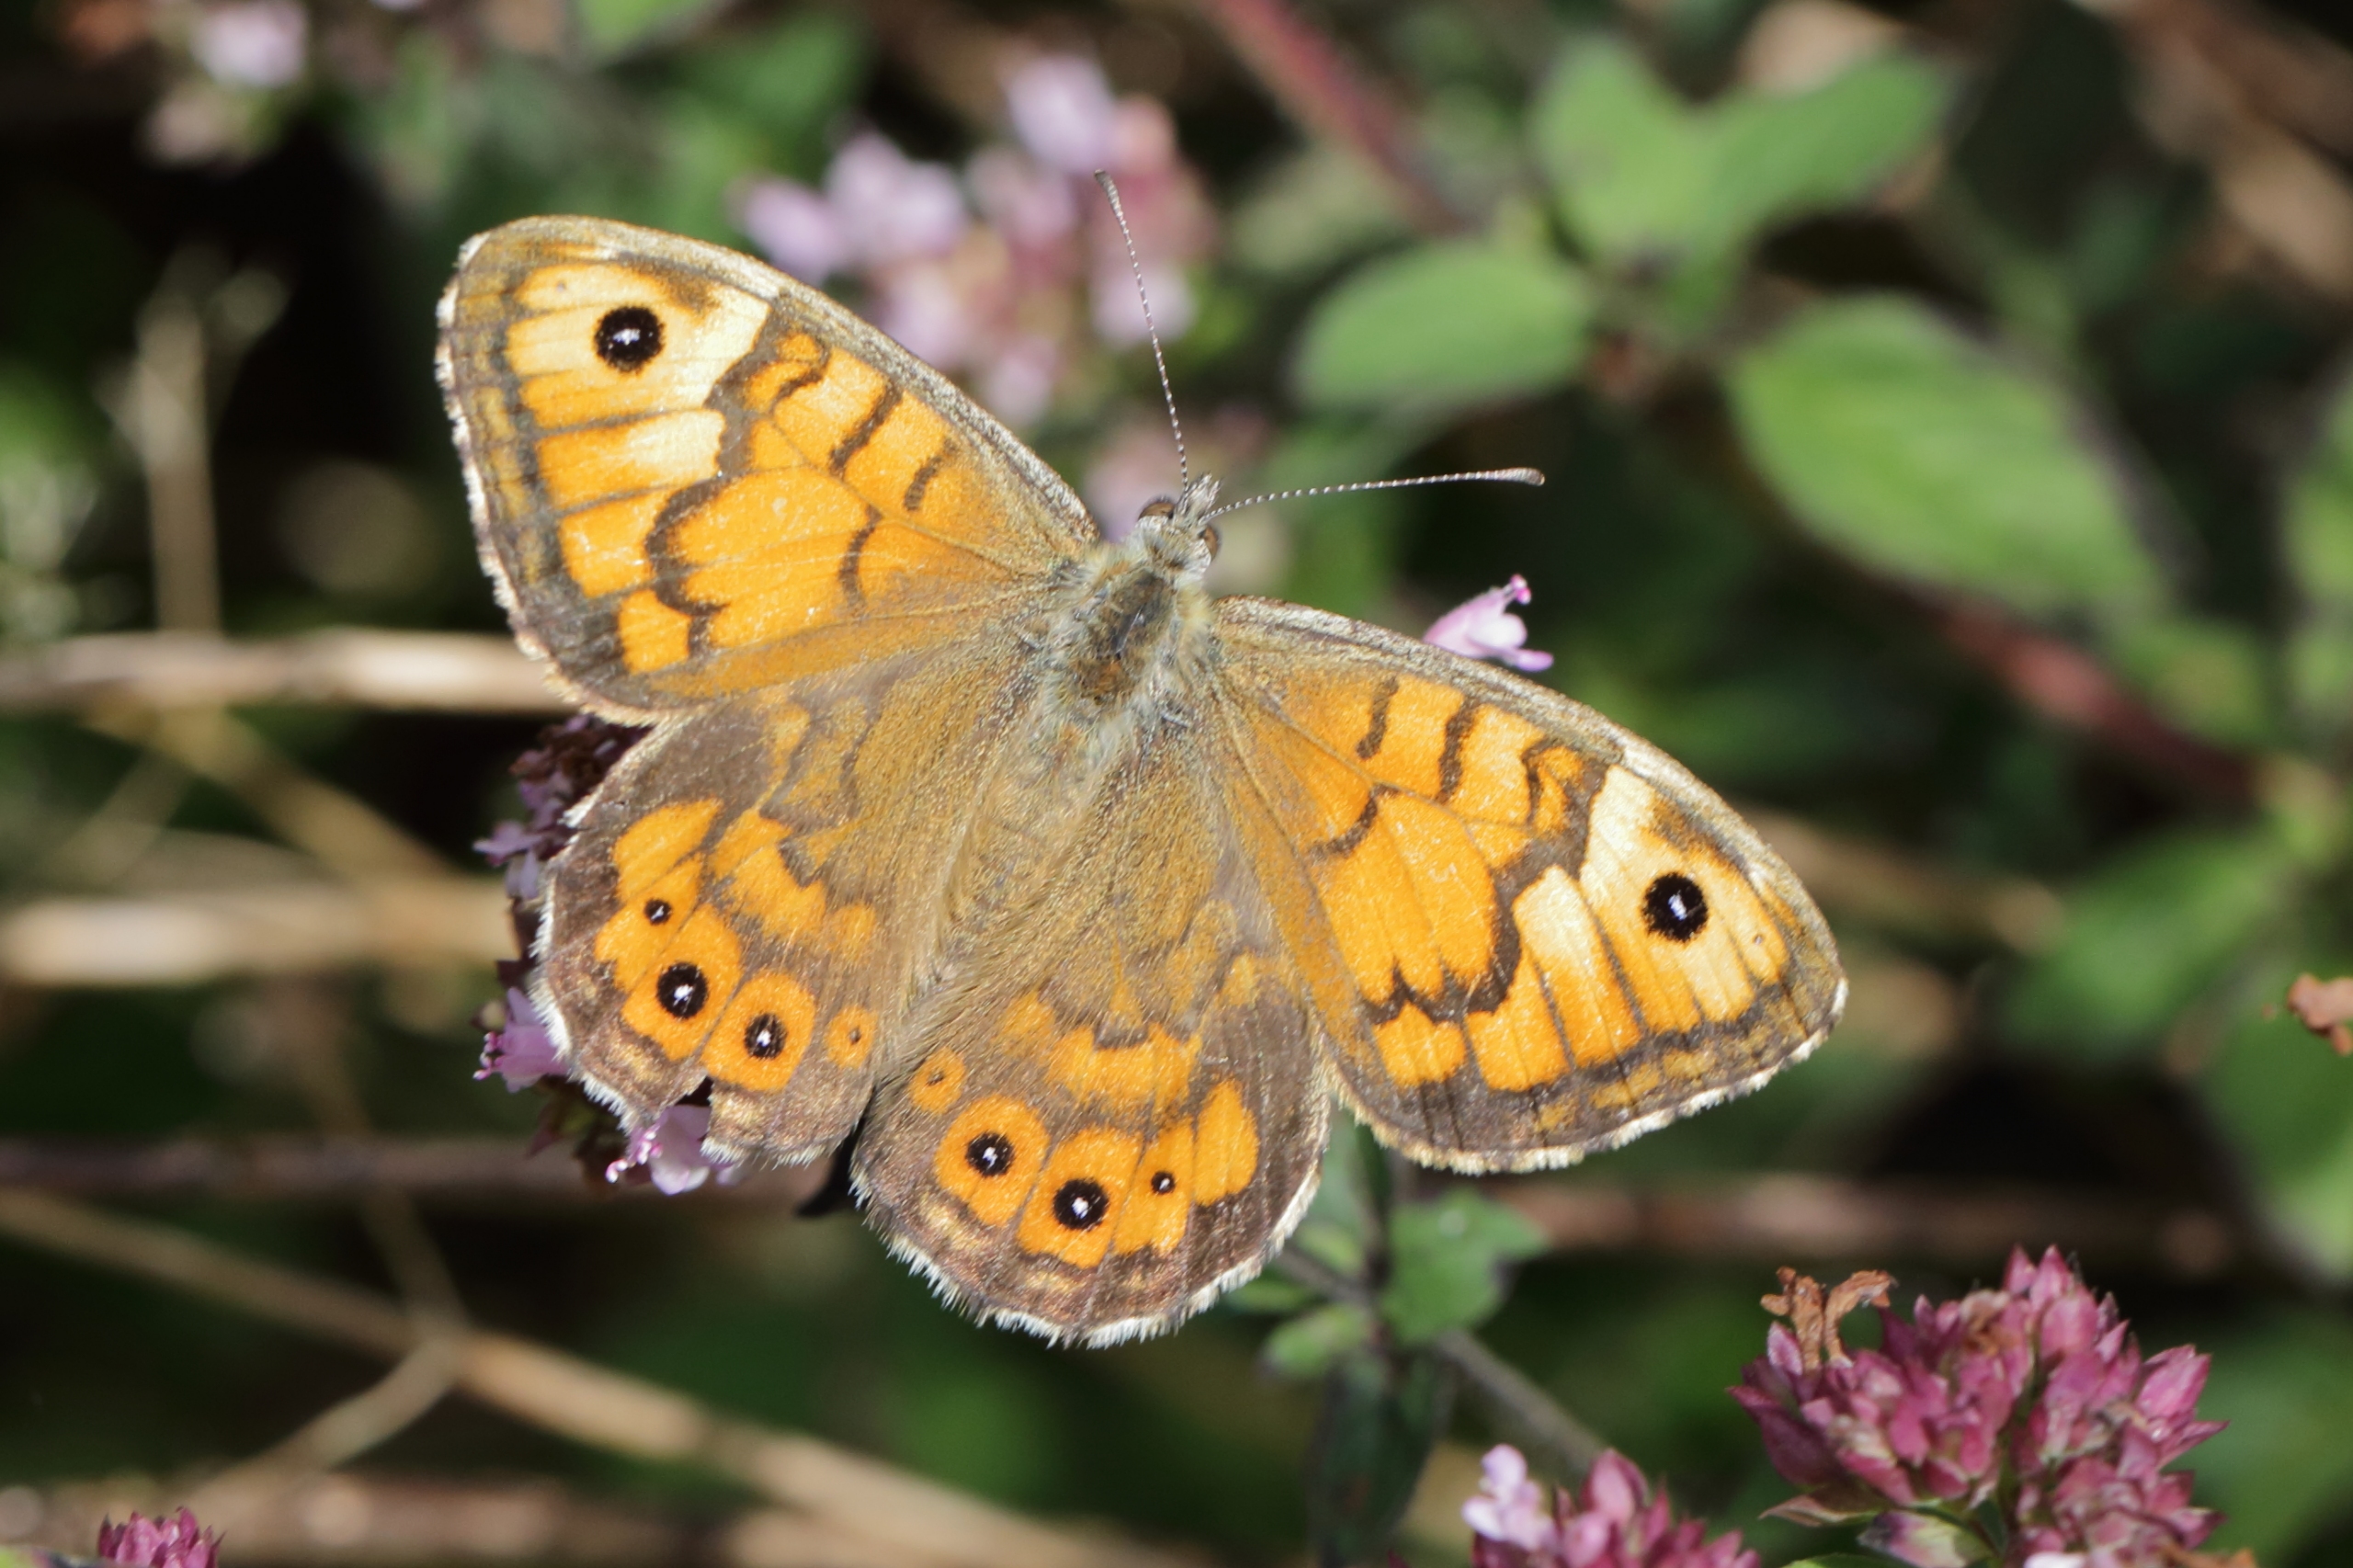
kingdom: Animalia
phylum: Arthropoda
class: Insecta
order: Lepidoptera
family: Nymphalidae
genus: Pararge
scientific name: Pararge Lasiommata megera
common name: Vejrandøje
